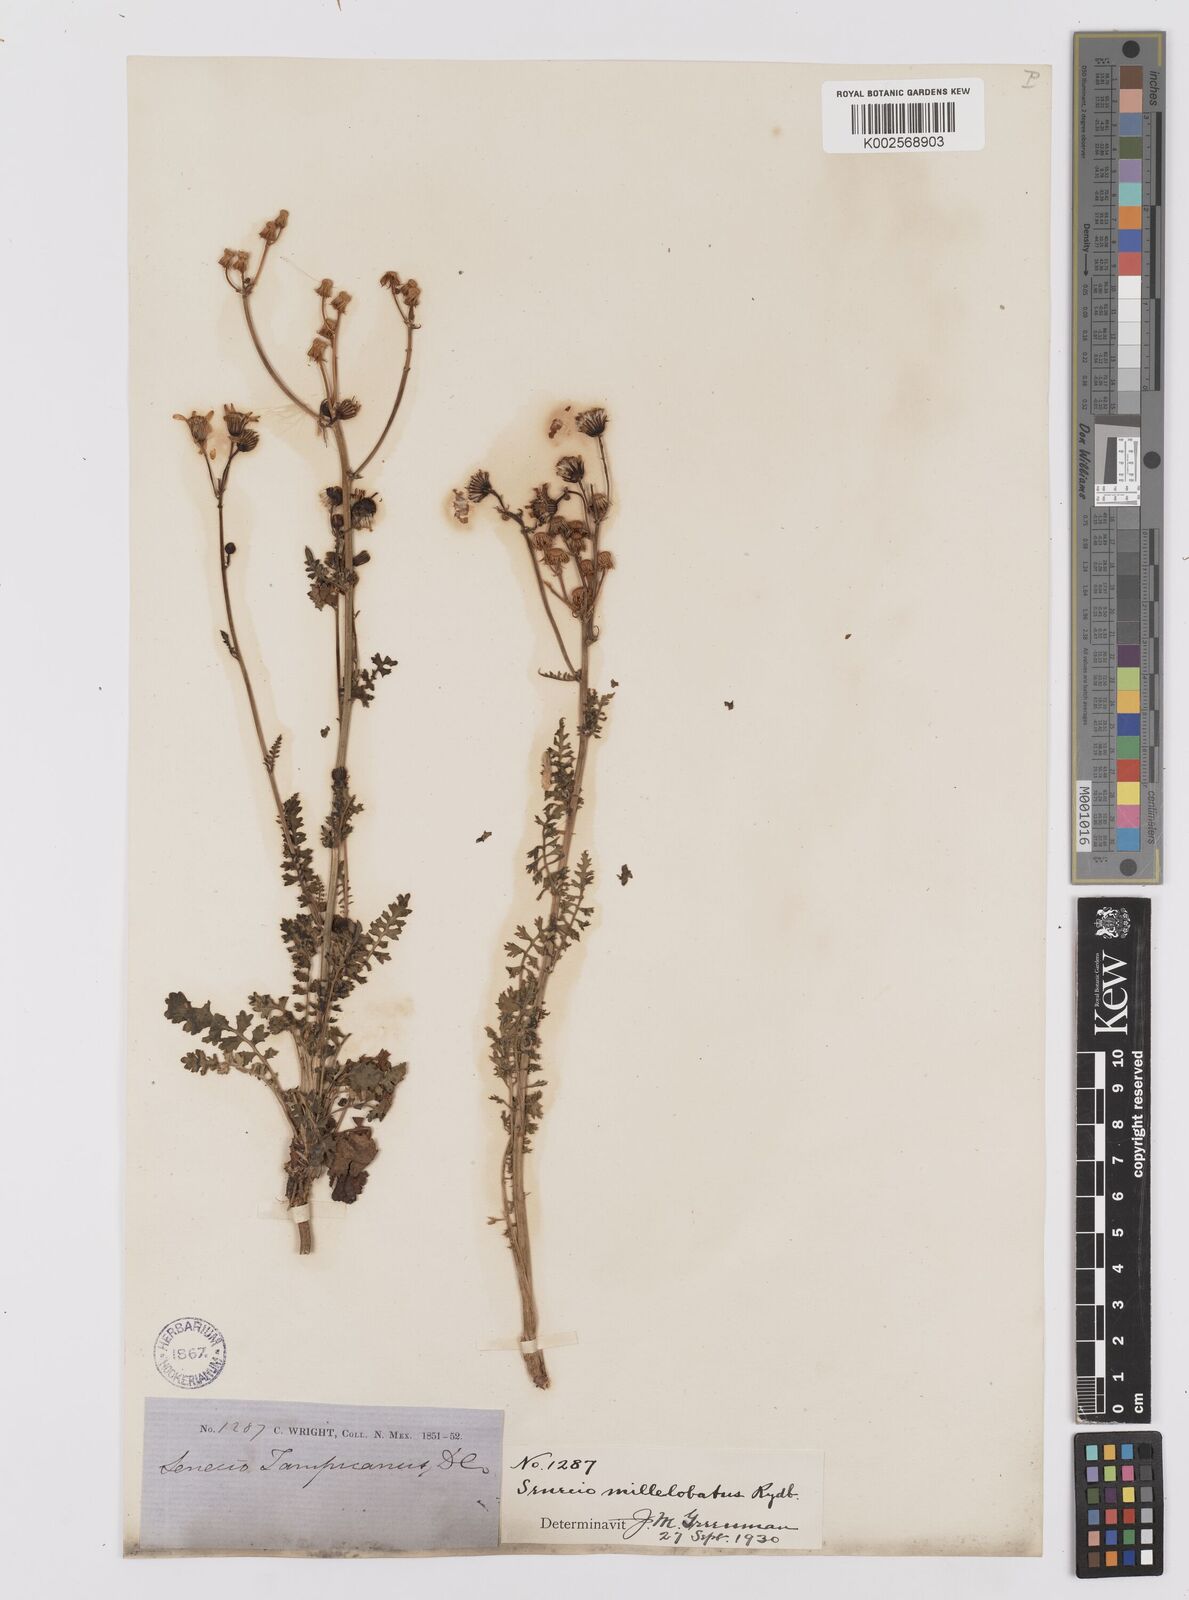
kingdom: Plantae
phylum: Tracheophyta
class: Magnoliopsida
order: Asterales
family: Asteraceae
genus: Packera
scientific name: Packera millelobata
